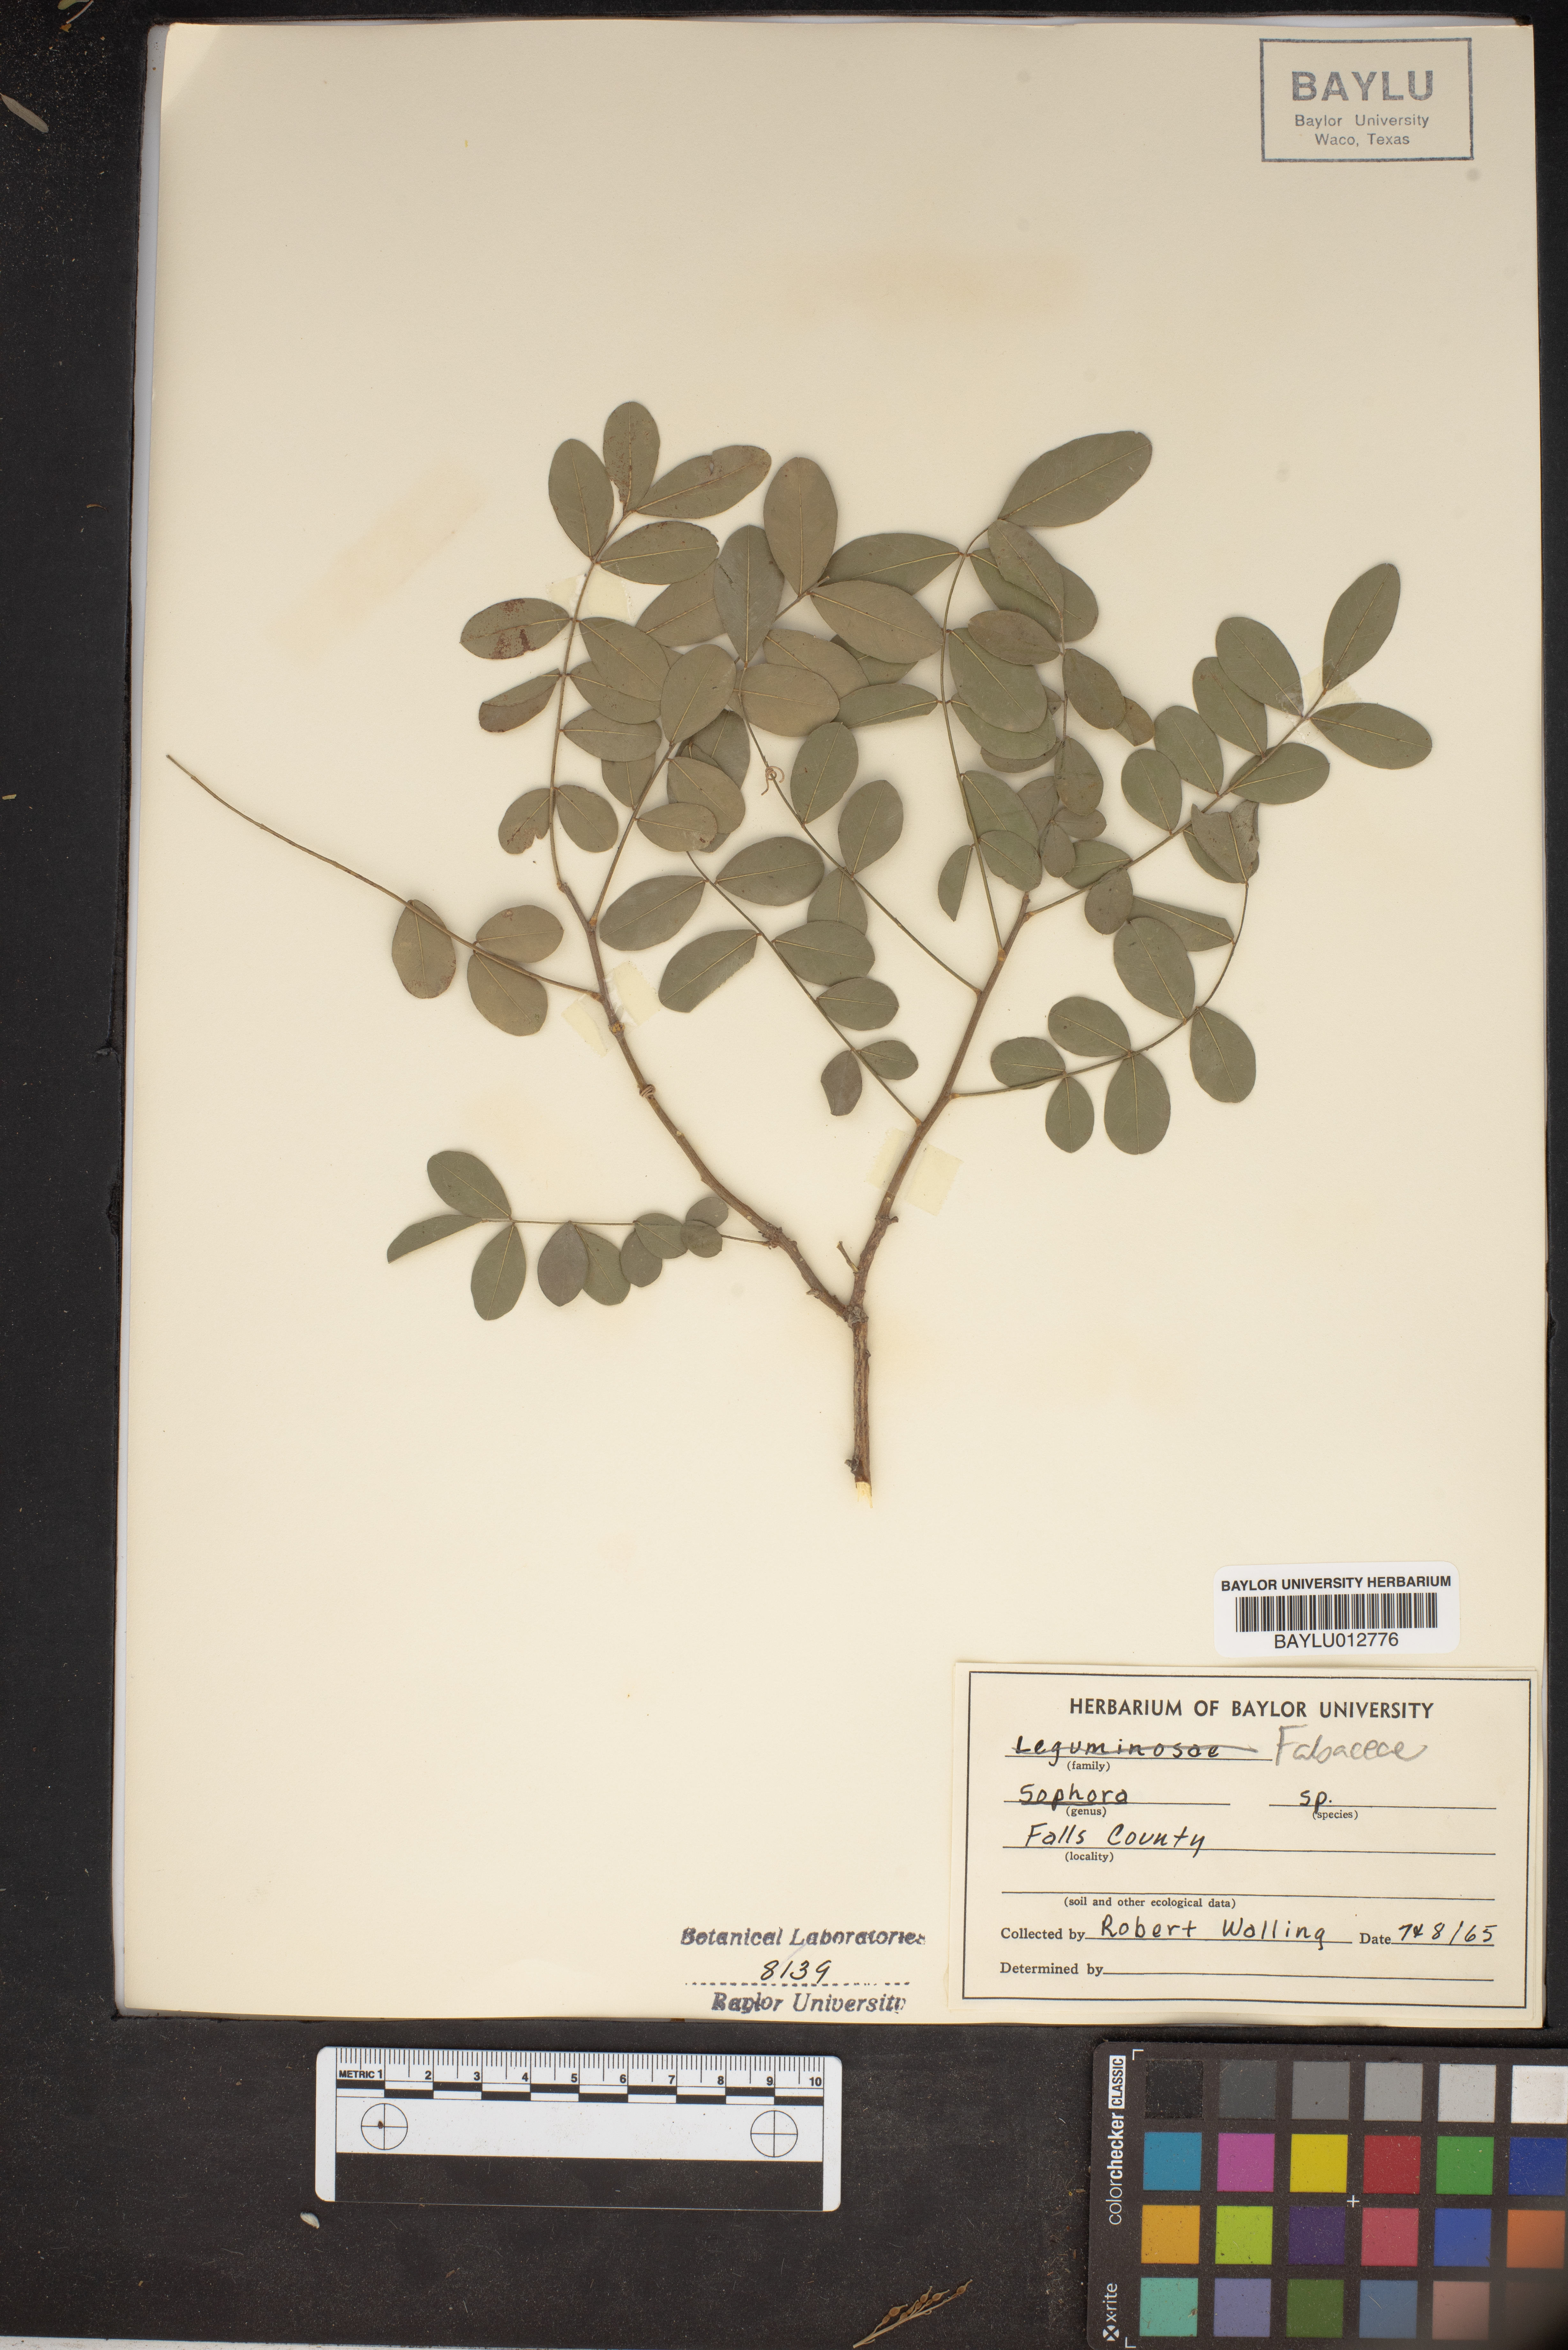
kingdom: Plantae
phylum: Tracheophyta
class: Magnoliopsida
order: Fabales
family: Fabaceae
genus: Sophora
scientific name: Sophora
